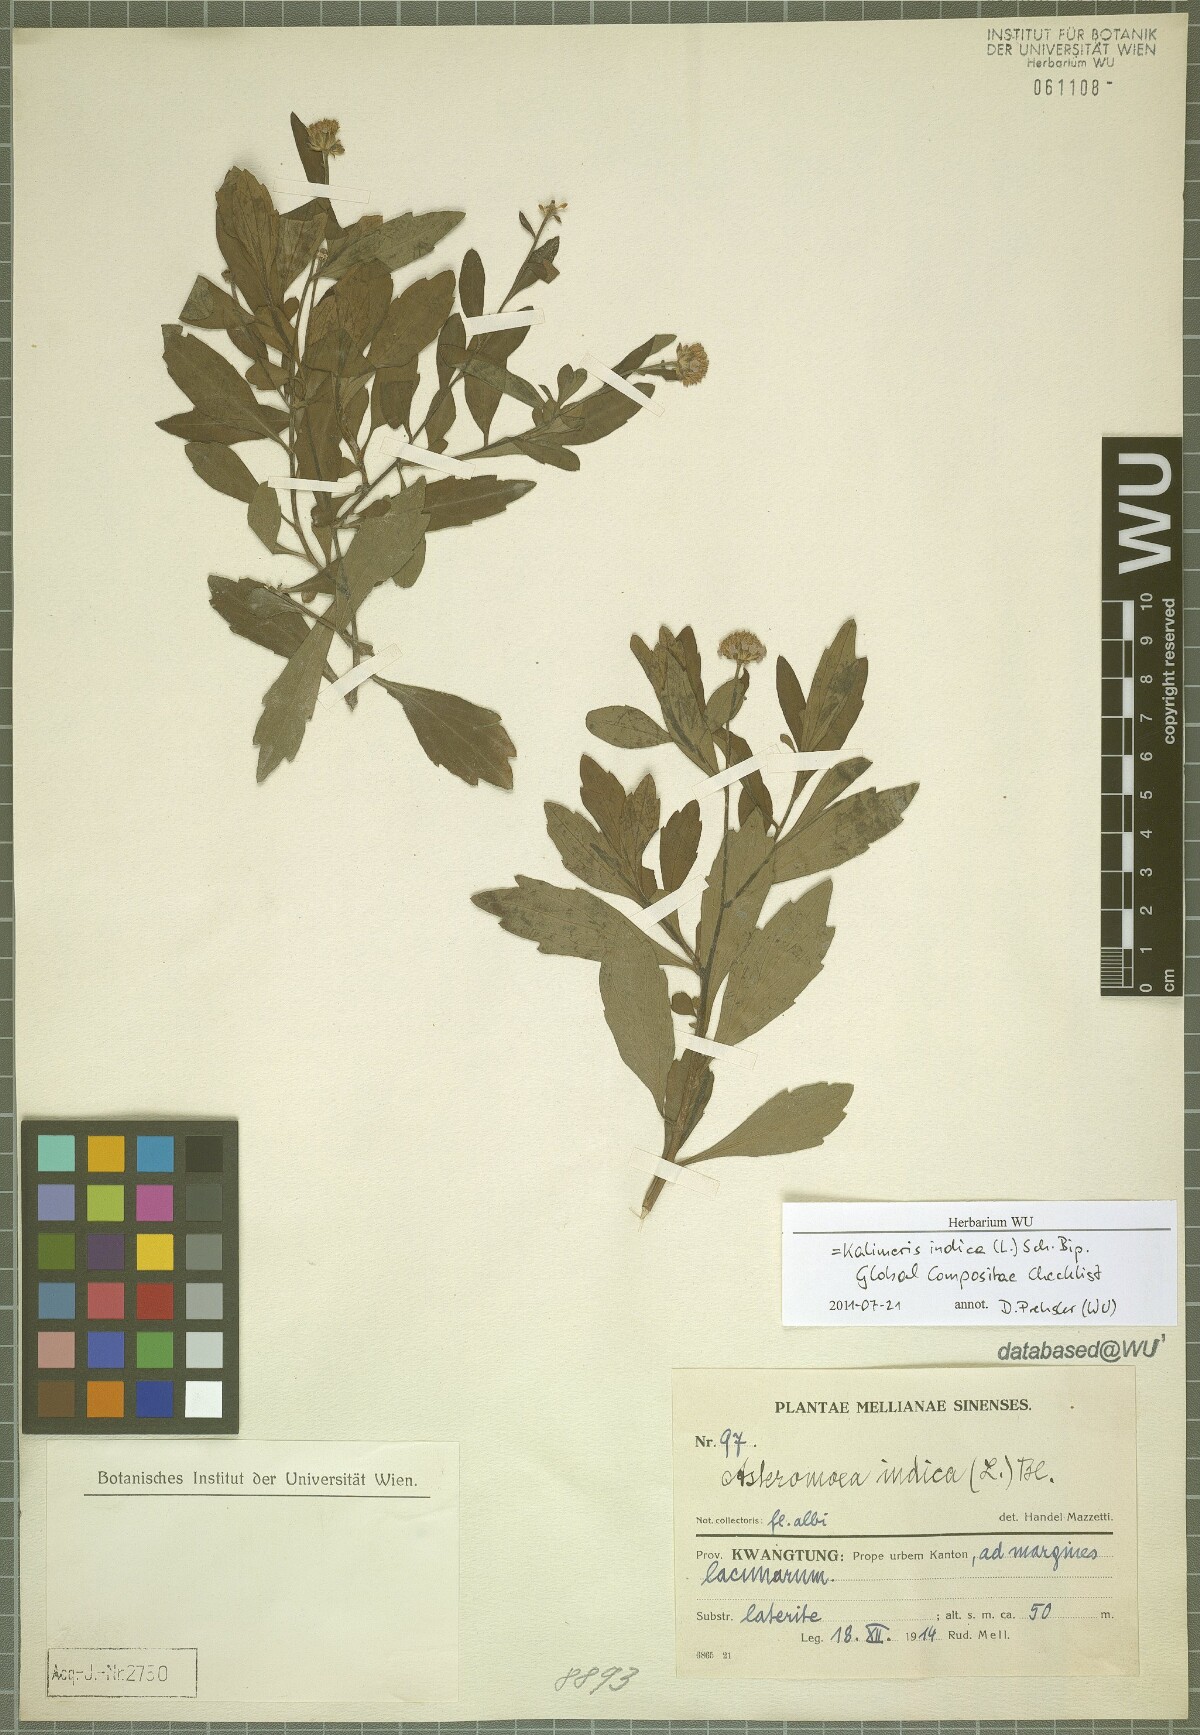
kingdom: Plantae
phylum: Tracheophyta
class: Magnoliopsida
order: Asterales
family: Asteraceae
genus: Kalimeris
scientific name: Kalimeris indica
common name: Indian aster
